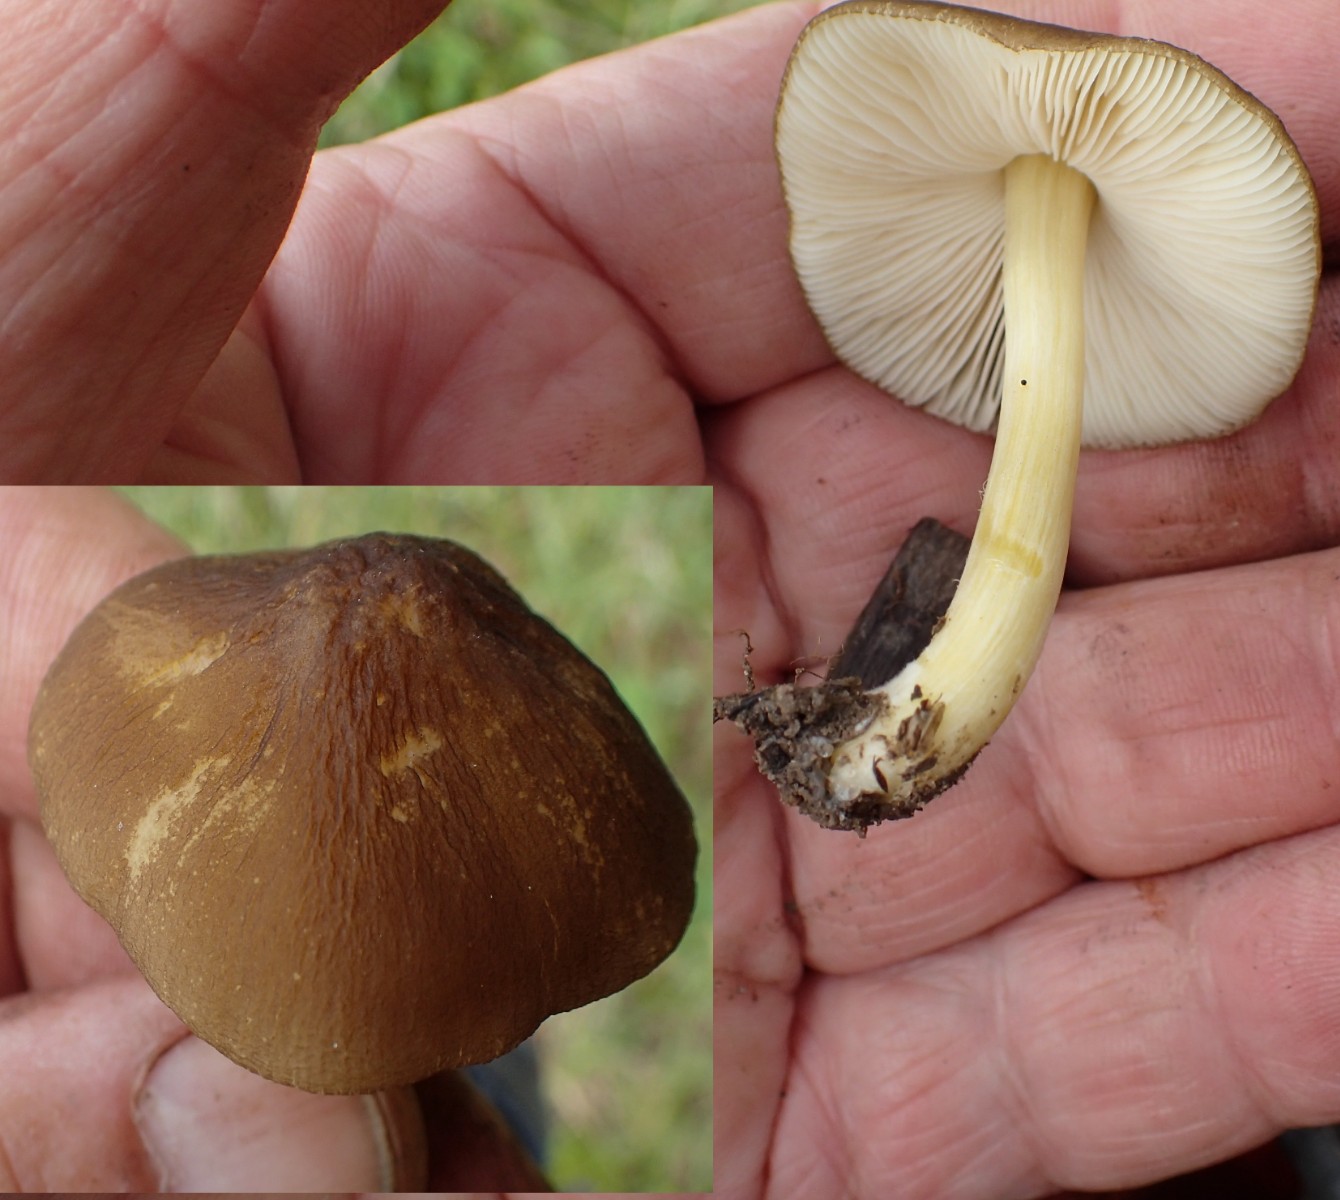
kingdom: Fungi
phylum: Basidiomycota
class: Agaricomycetes
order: Agaricales
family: Pluteaceae
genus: Pluteus
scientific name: Pluteus romellii
